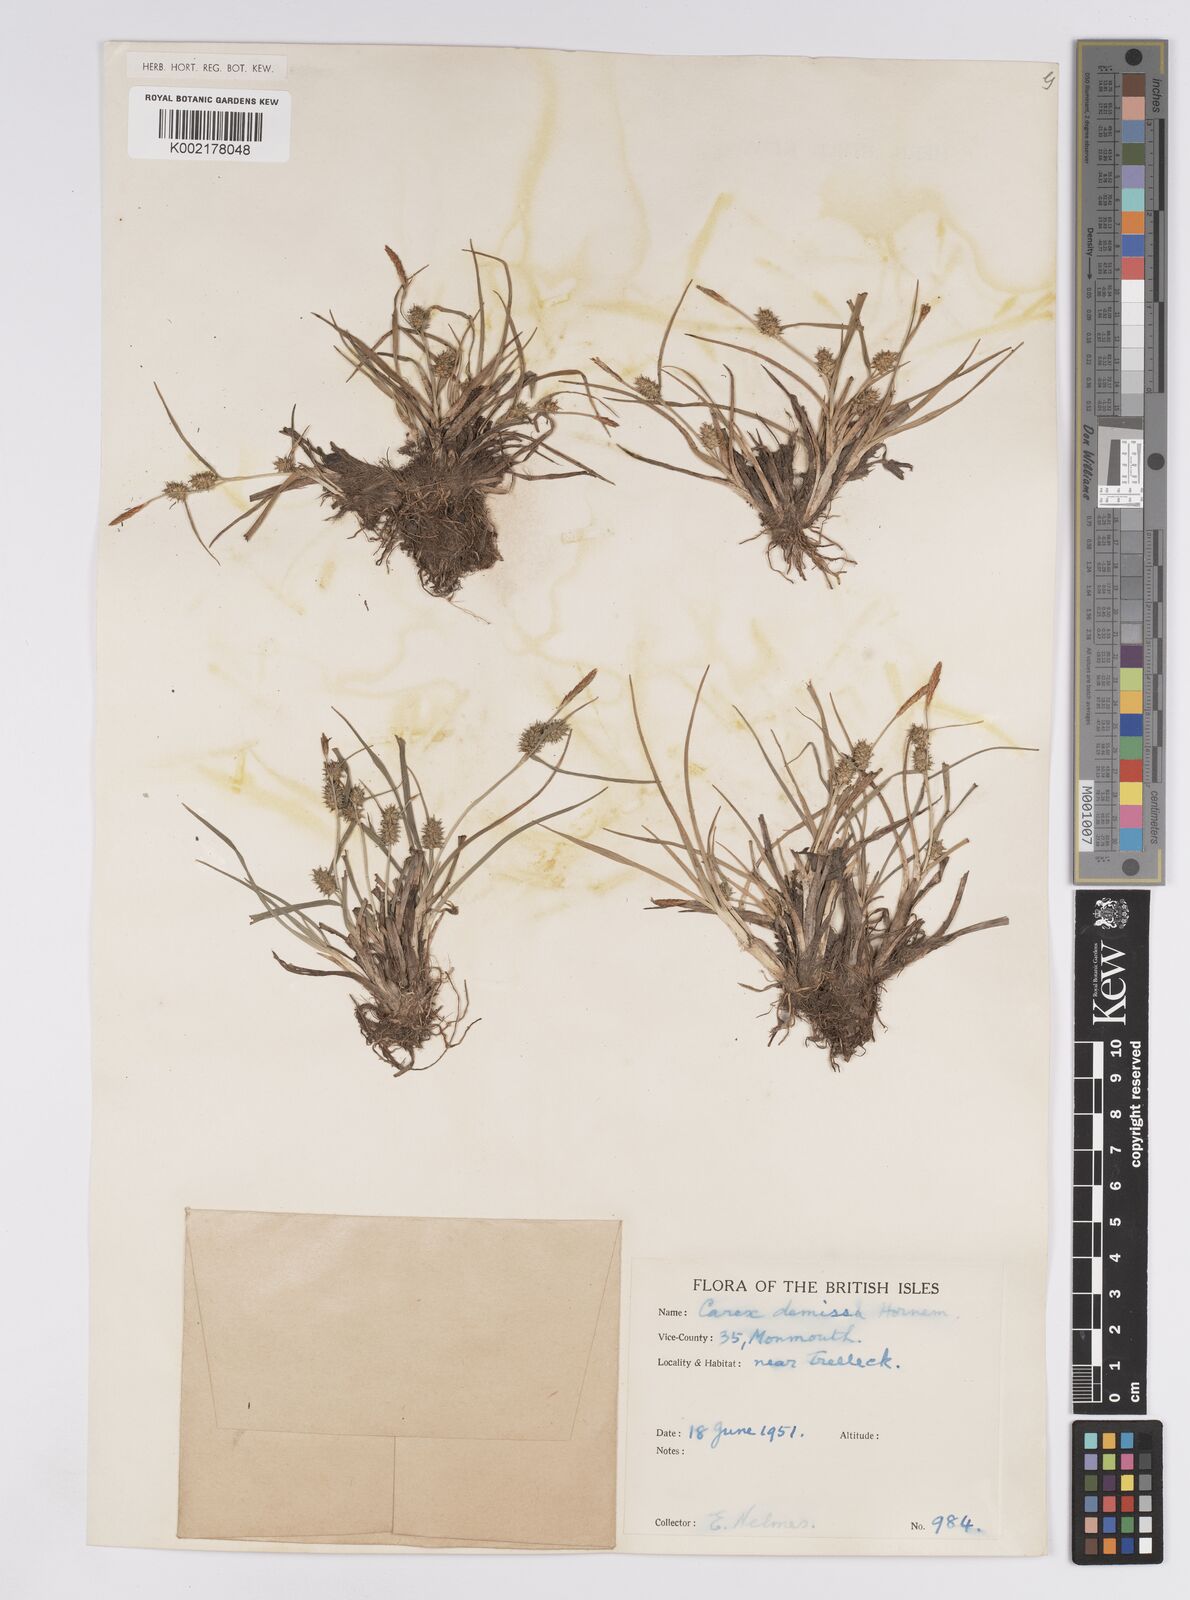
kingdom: Plantae
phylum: Tracheophyta
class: Liliopsida
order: Poales
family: Cyperaceae
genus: Carex
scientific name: Carex demissa
